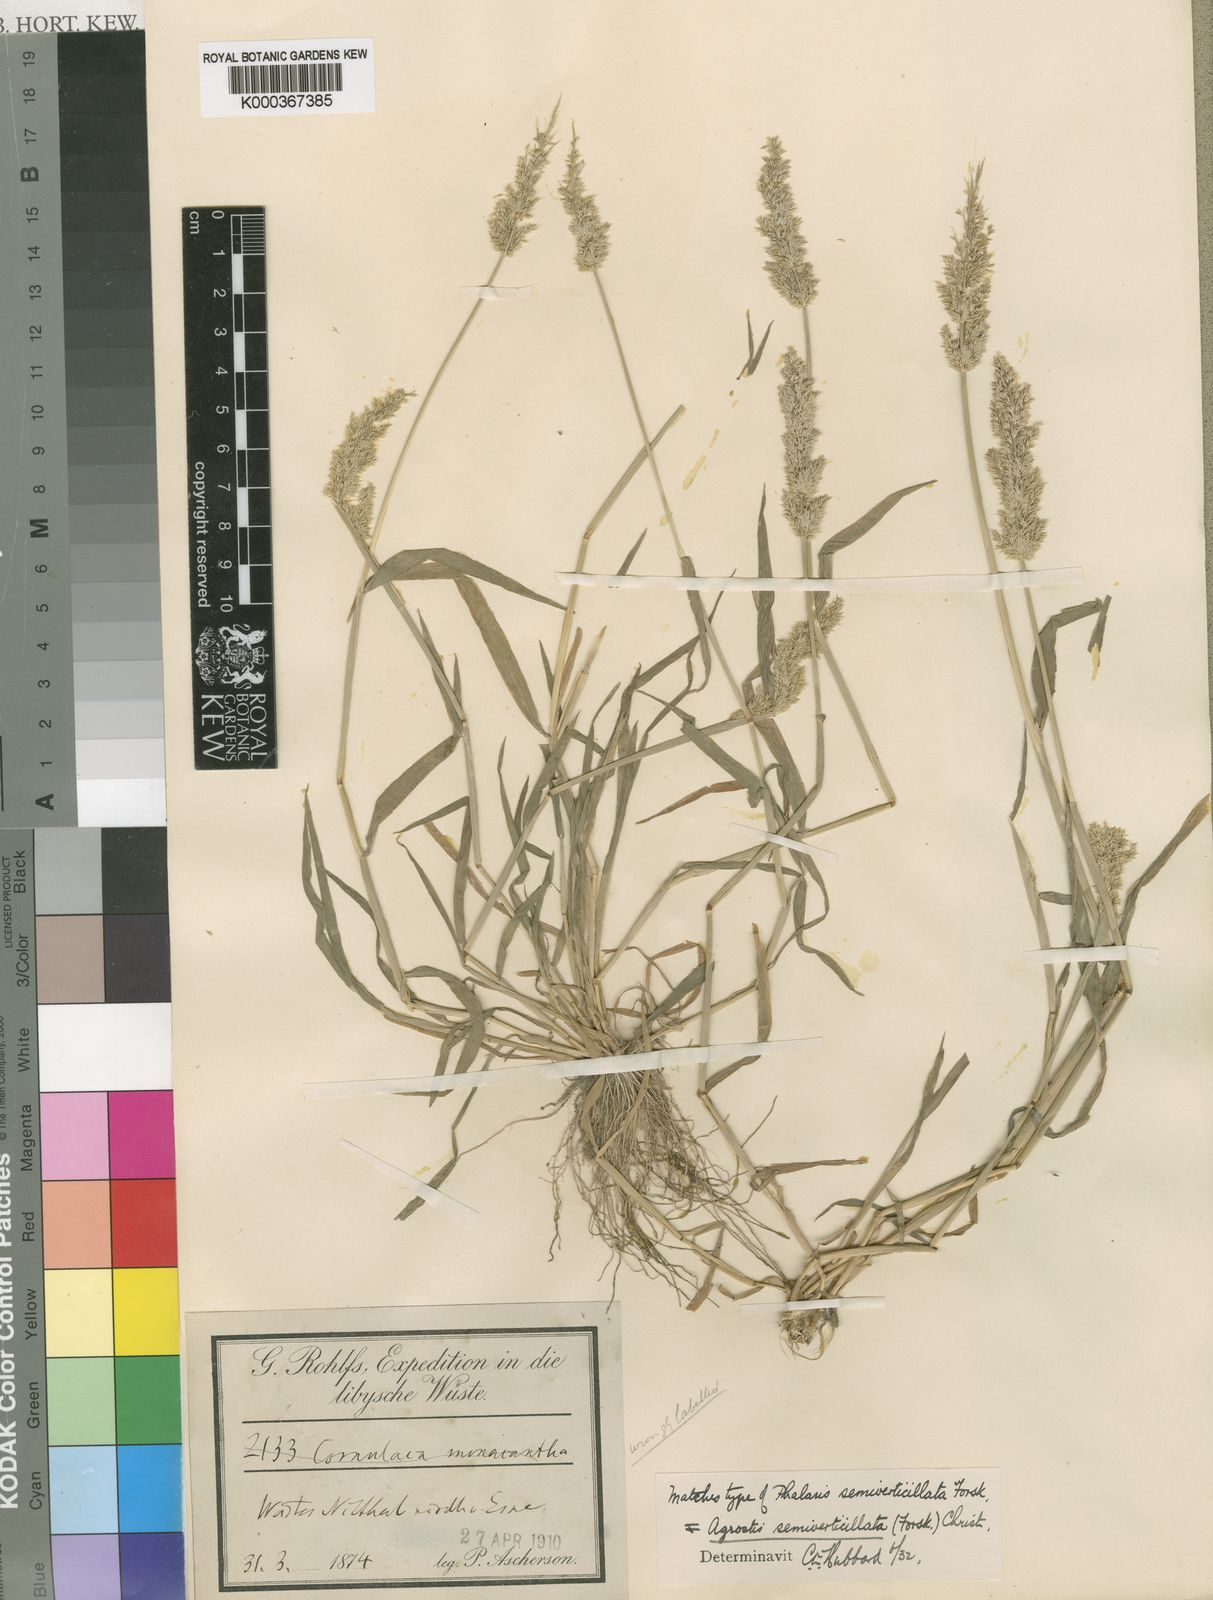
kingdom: Plantae
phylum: Tracheophyta
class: Liliopsida
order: Poales
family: Poaceae
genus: Polypogon
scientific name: Polypogon viridis
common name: Water bent
